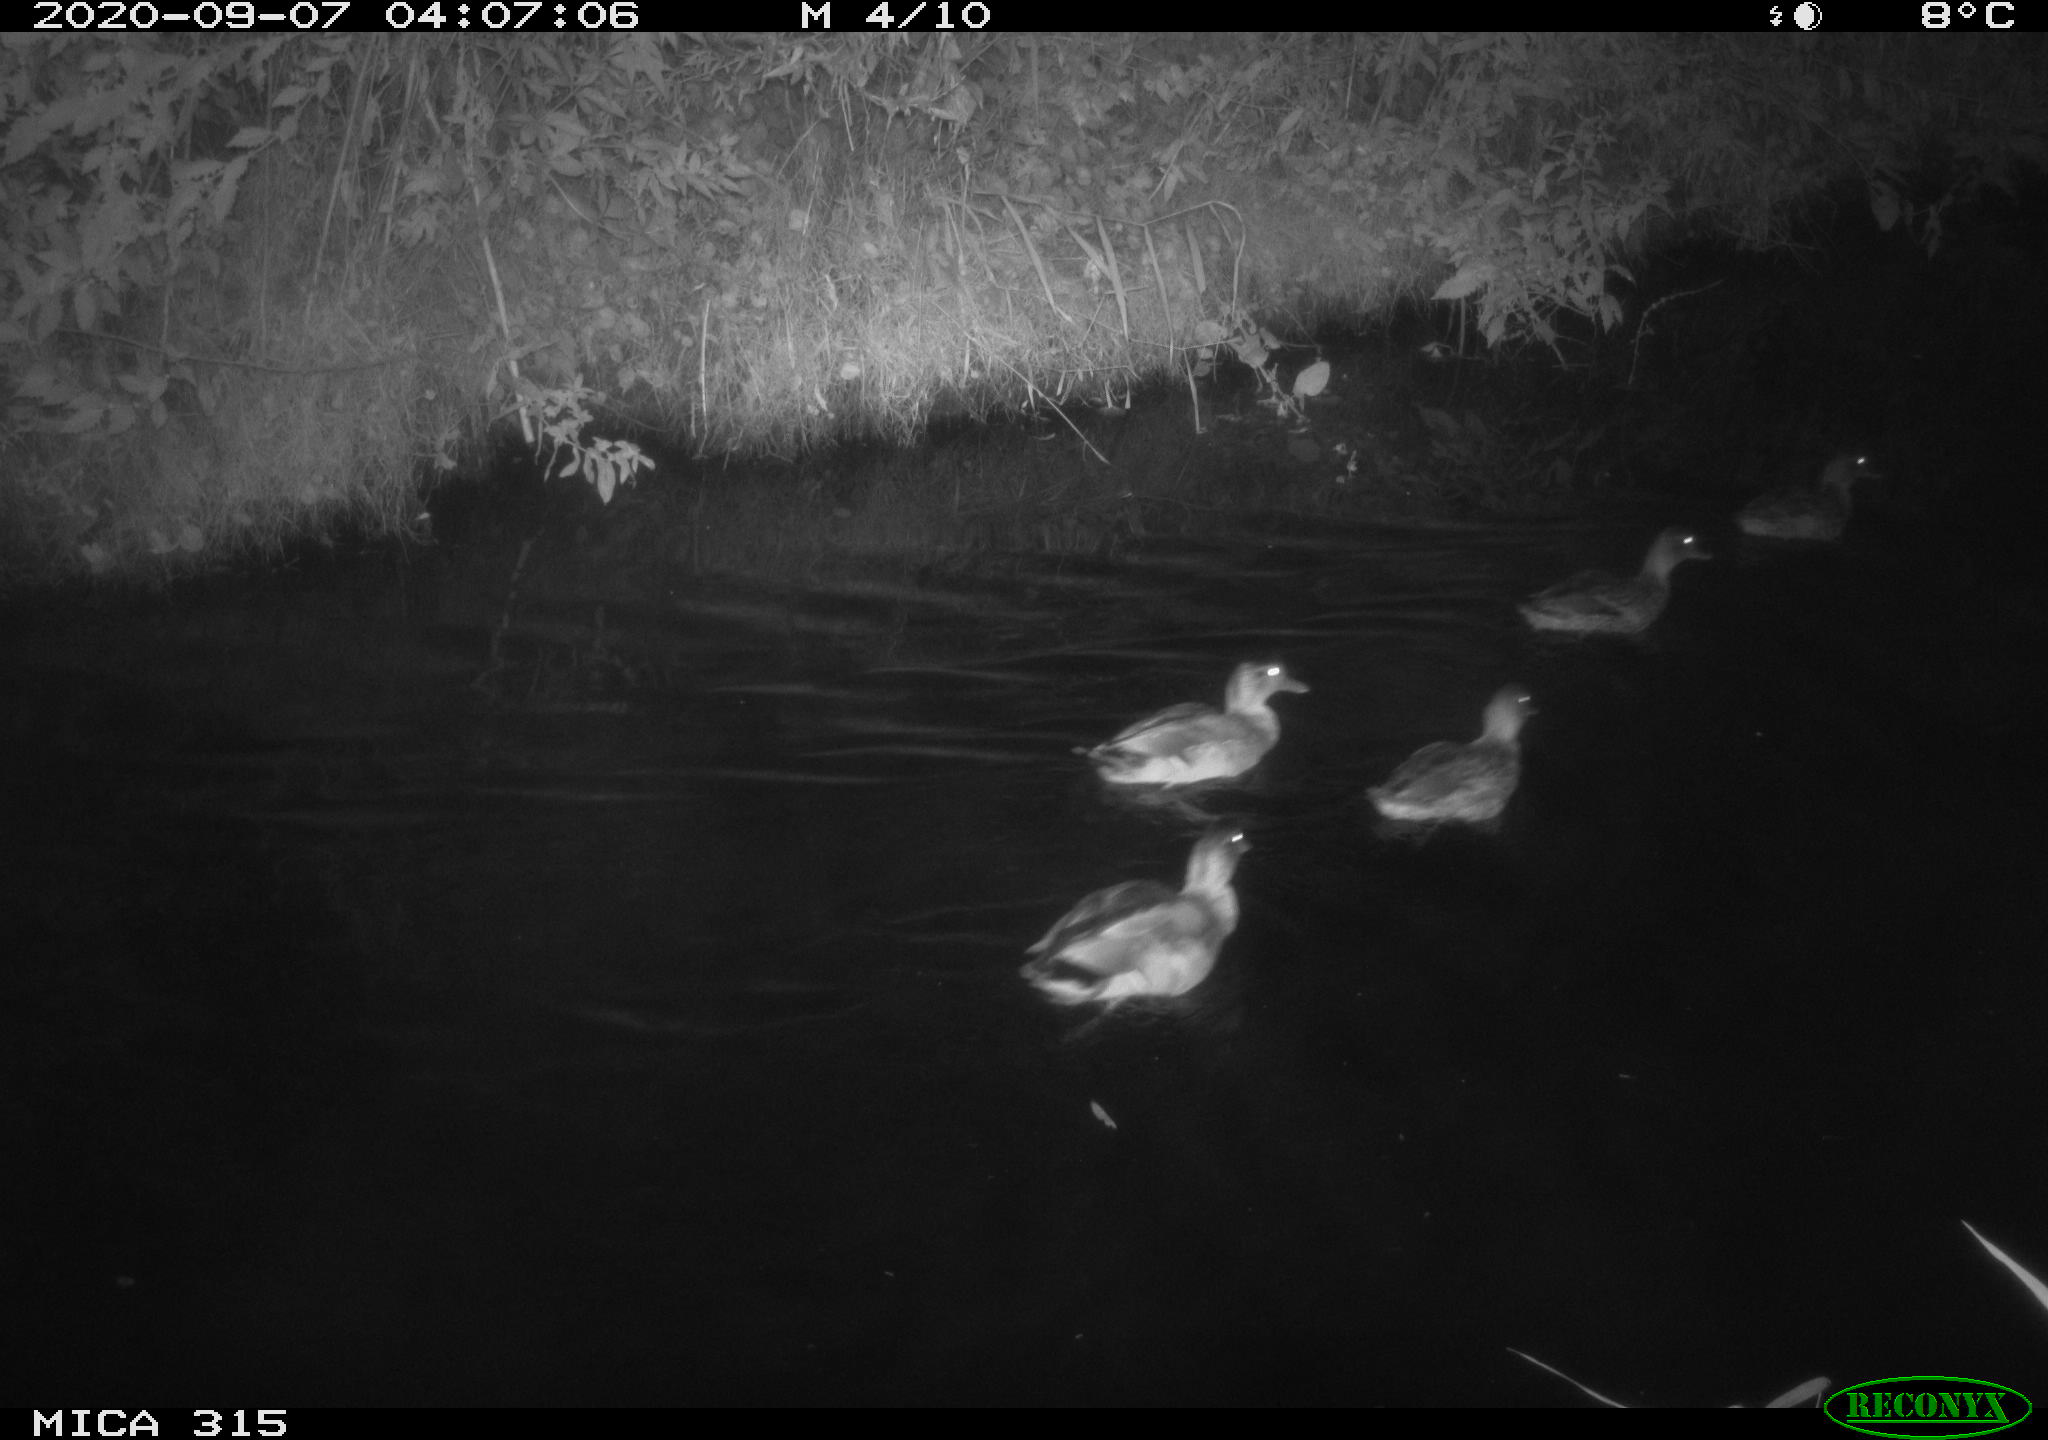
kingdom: Animalia
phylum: Chordata
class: Aves
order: Anseriformes
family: Anatidae
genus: Anas
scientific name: Anas platyrhynchos
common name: Mallard
